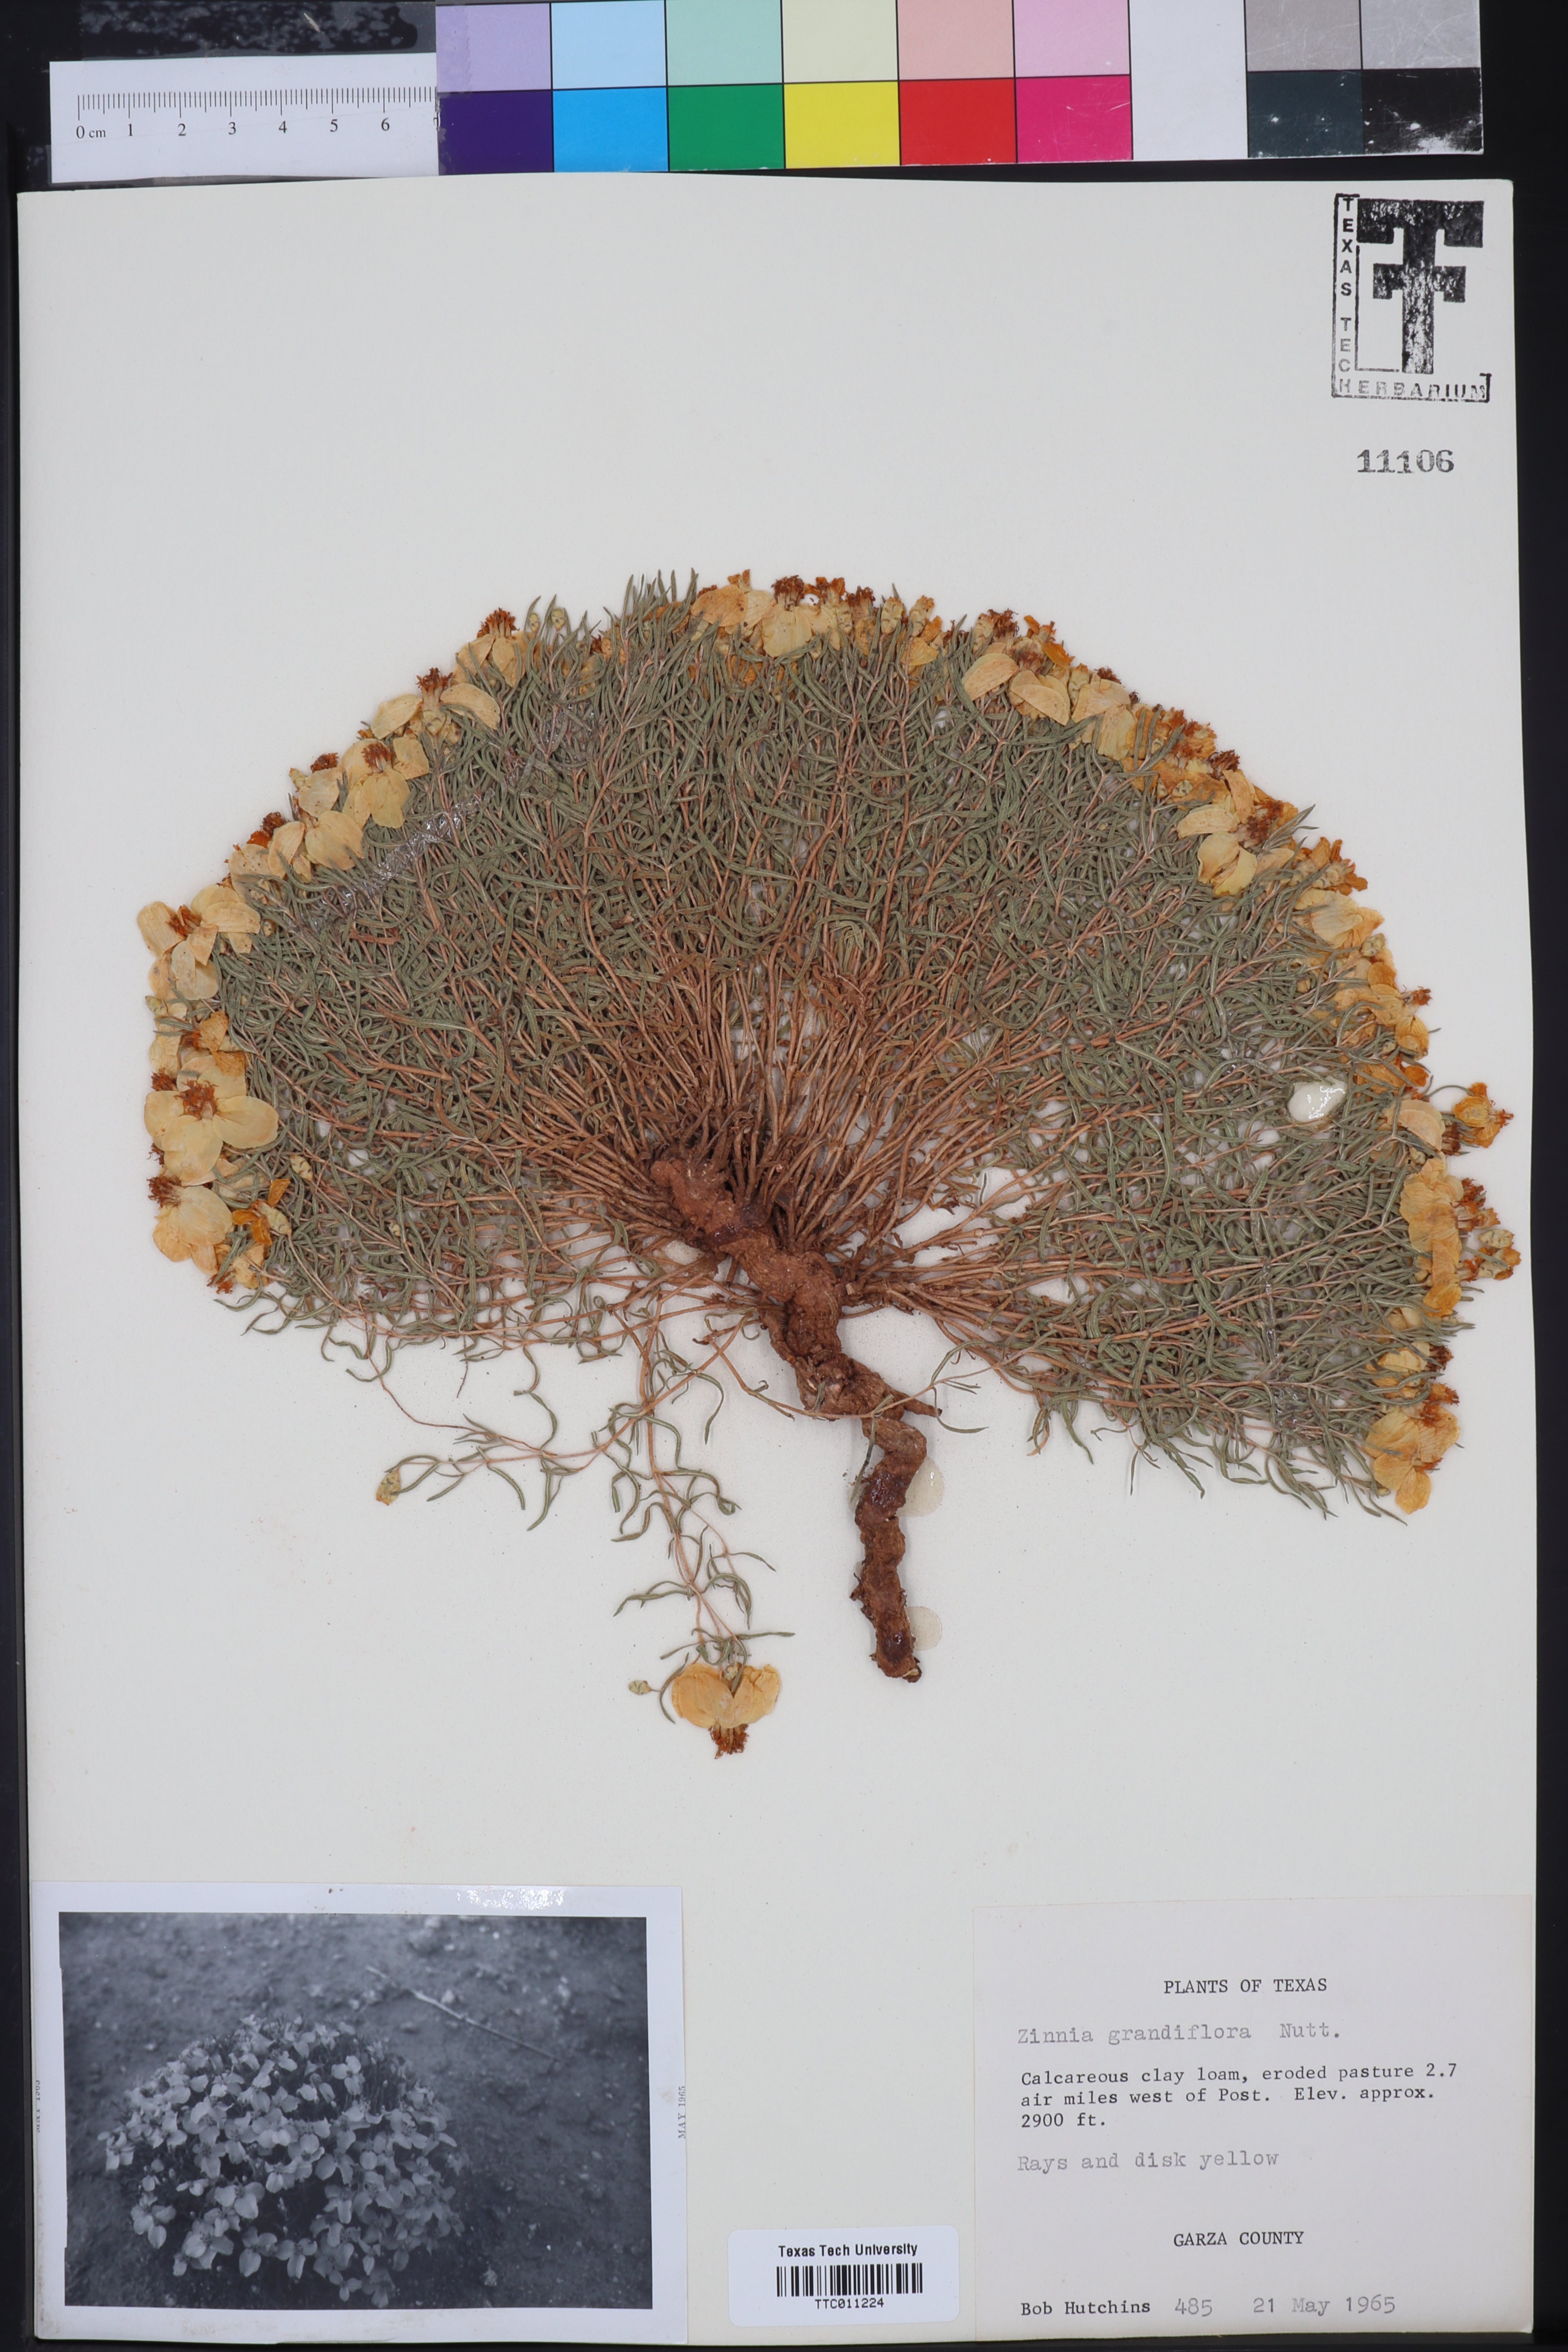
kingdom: Plantae
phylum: Tracheophyta
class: Magnoliopsida
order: Asterales
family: Asteraceae
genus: Zinnia
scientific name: Zinnia grandiflora
